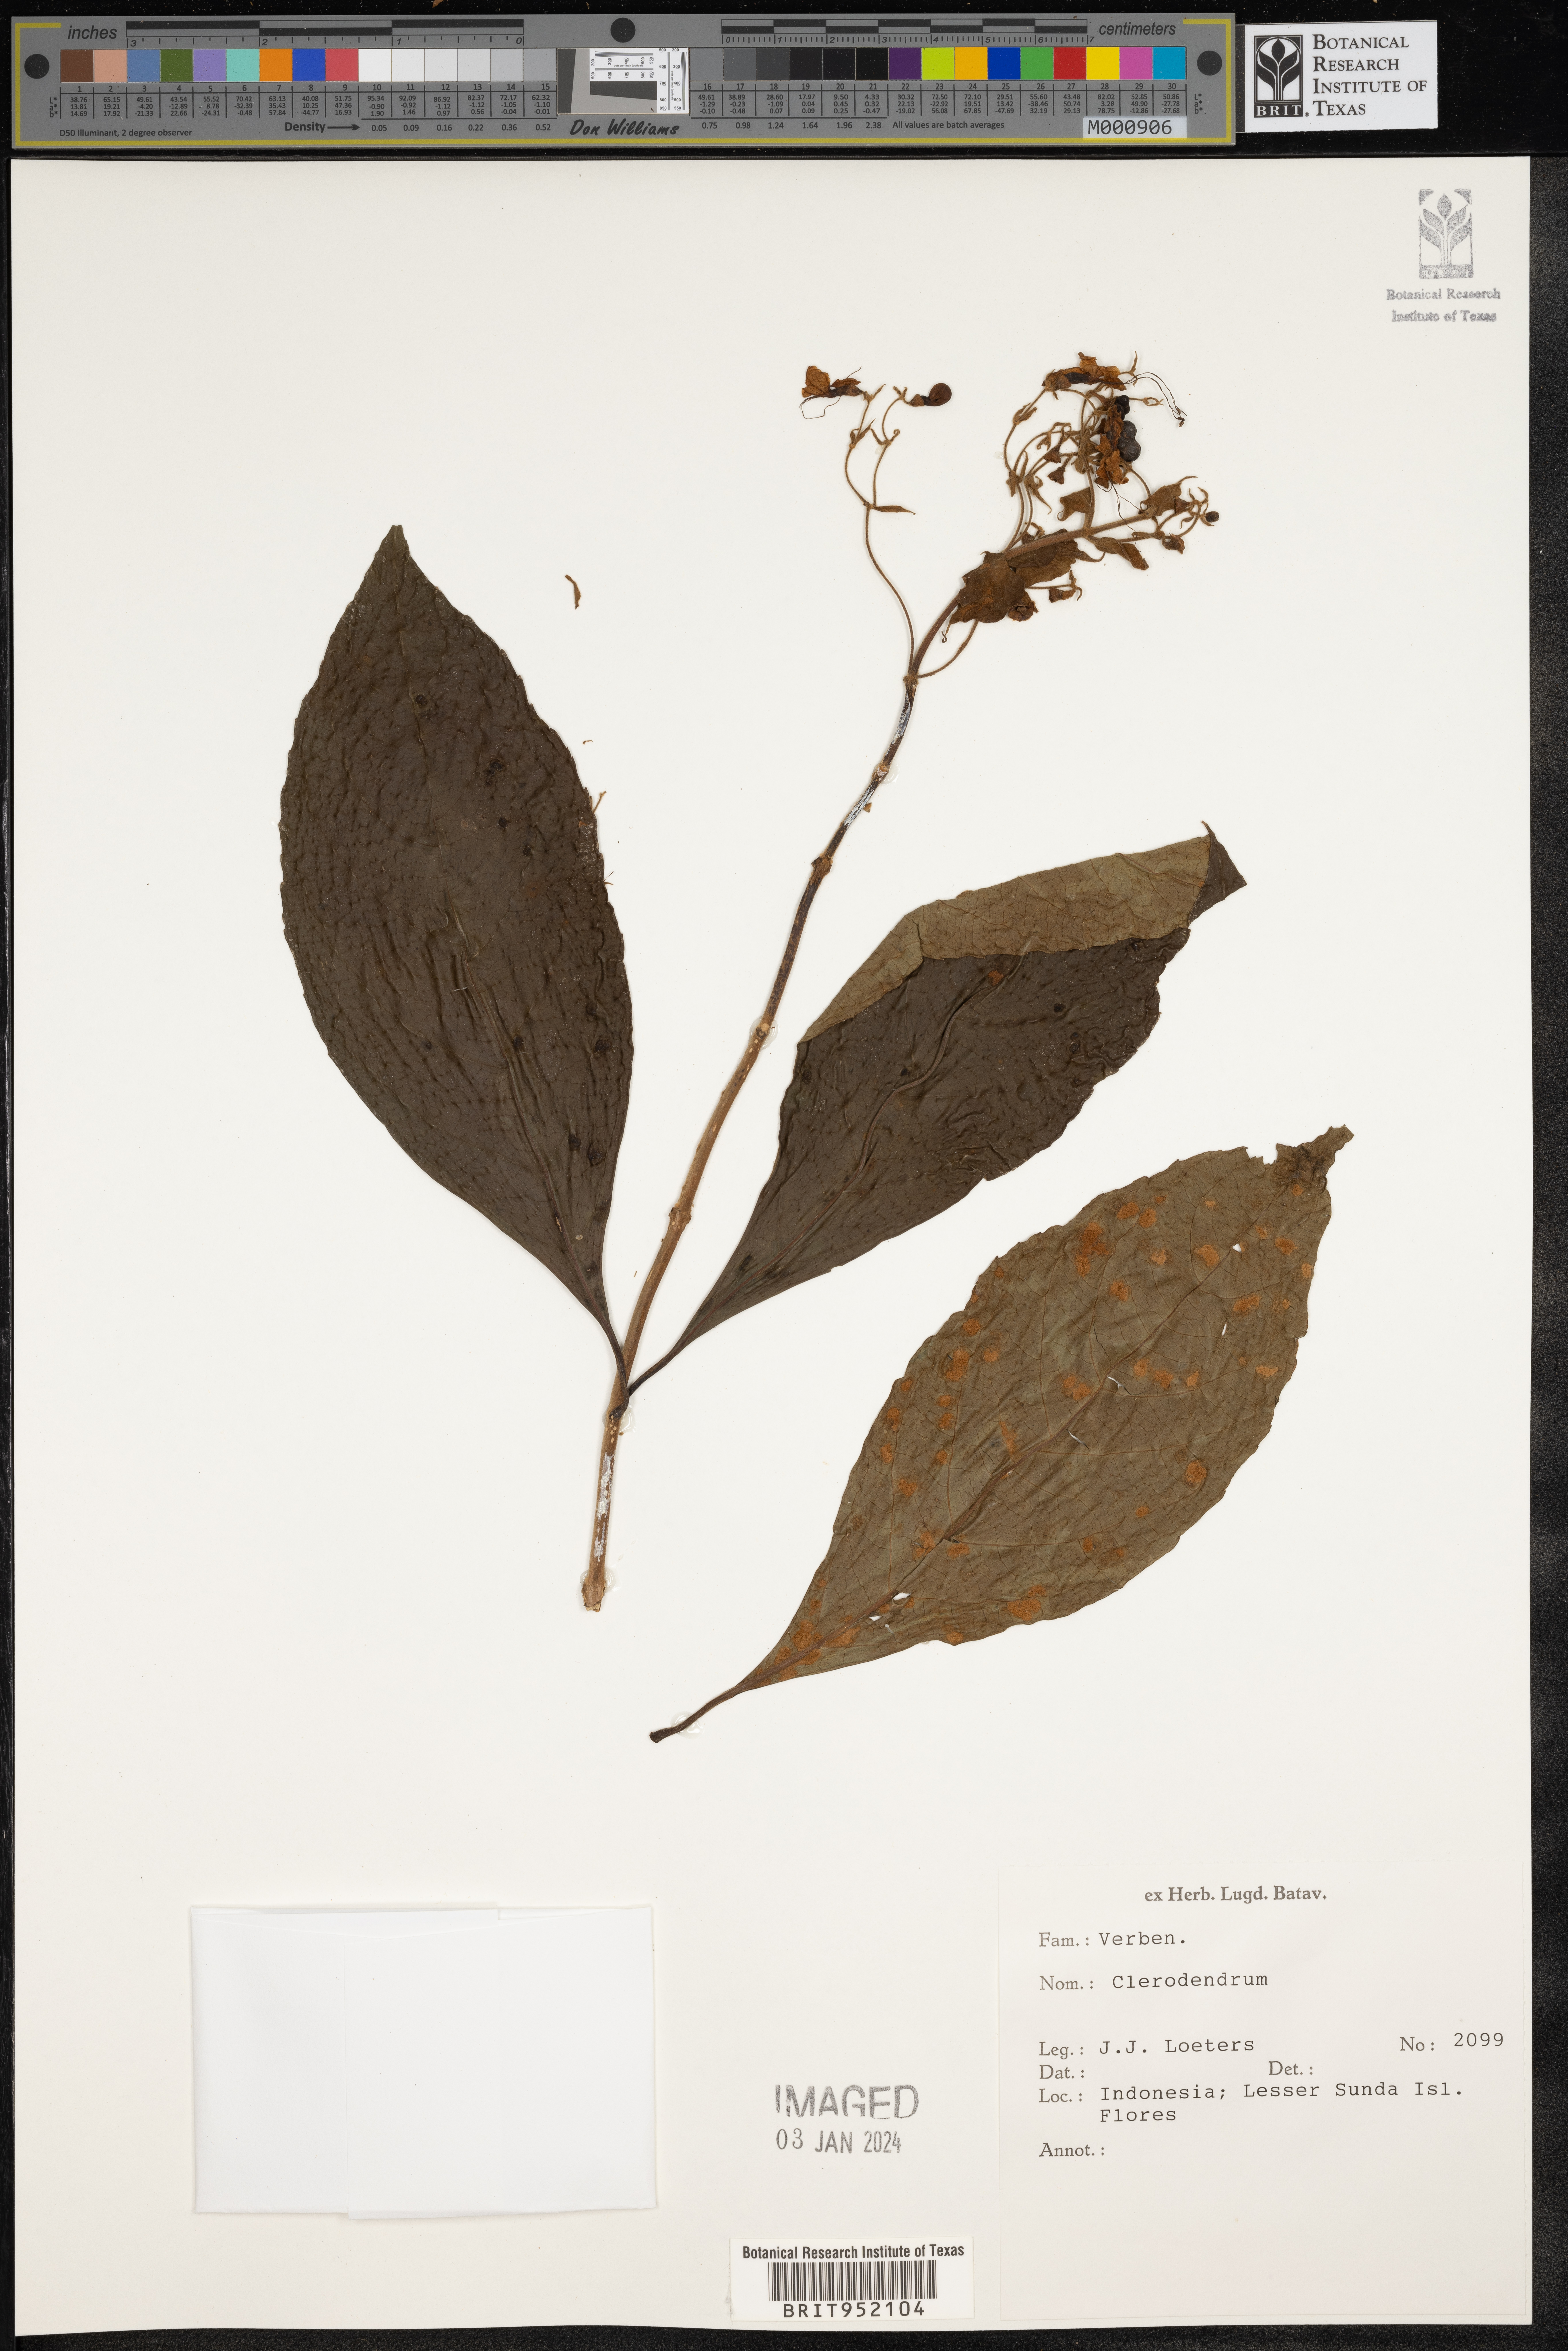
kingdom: Plantae
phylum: Tracheophyta
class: Magnoliopsida
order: Lamiales
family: Lamiaceae
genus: Clerodendrum
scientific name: Clerodendrum
